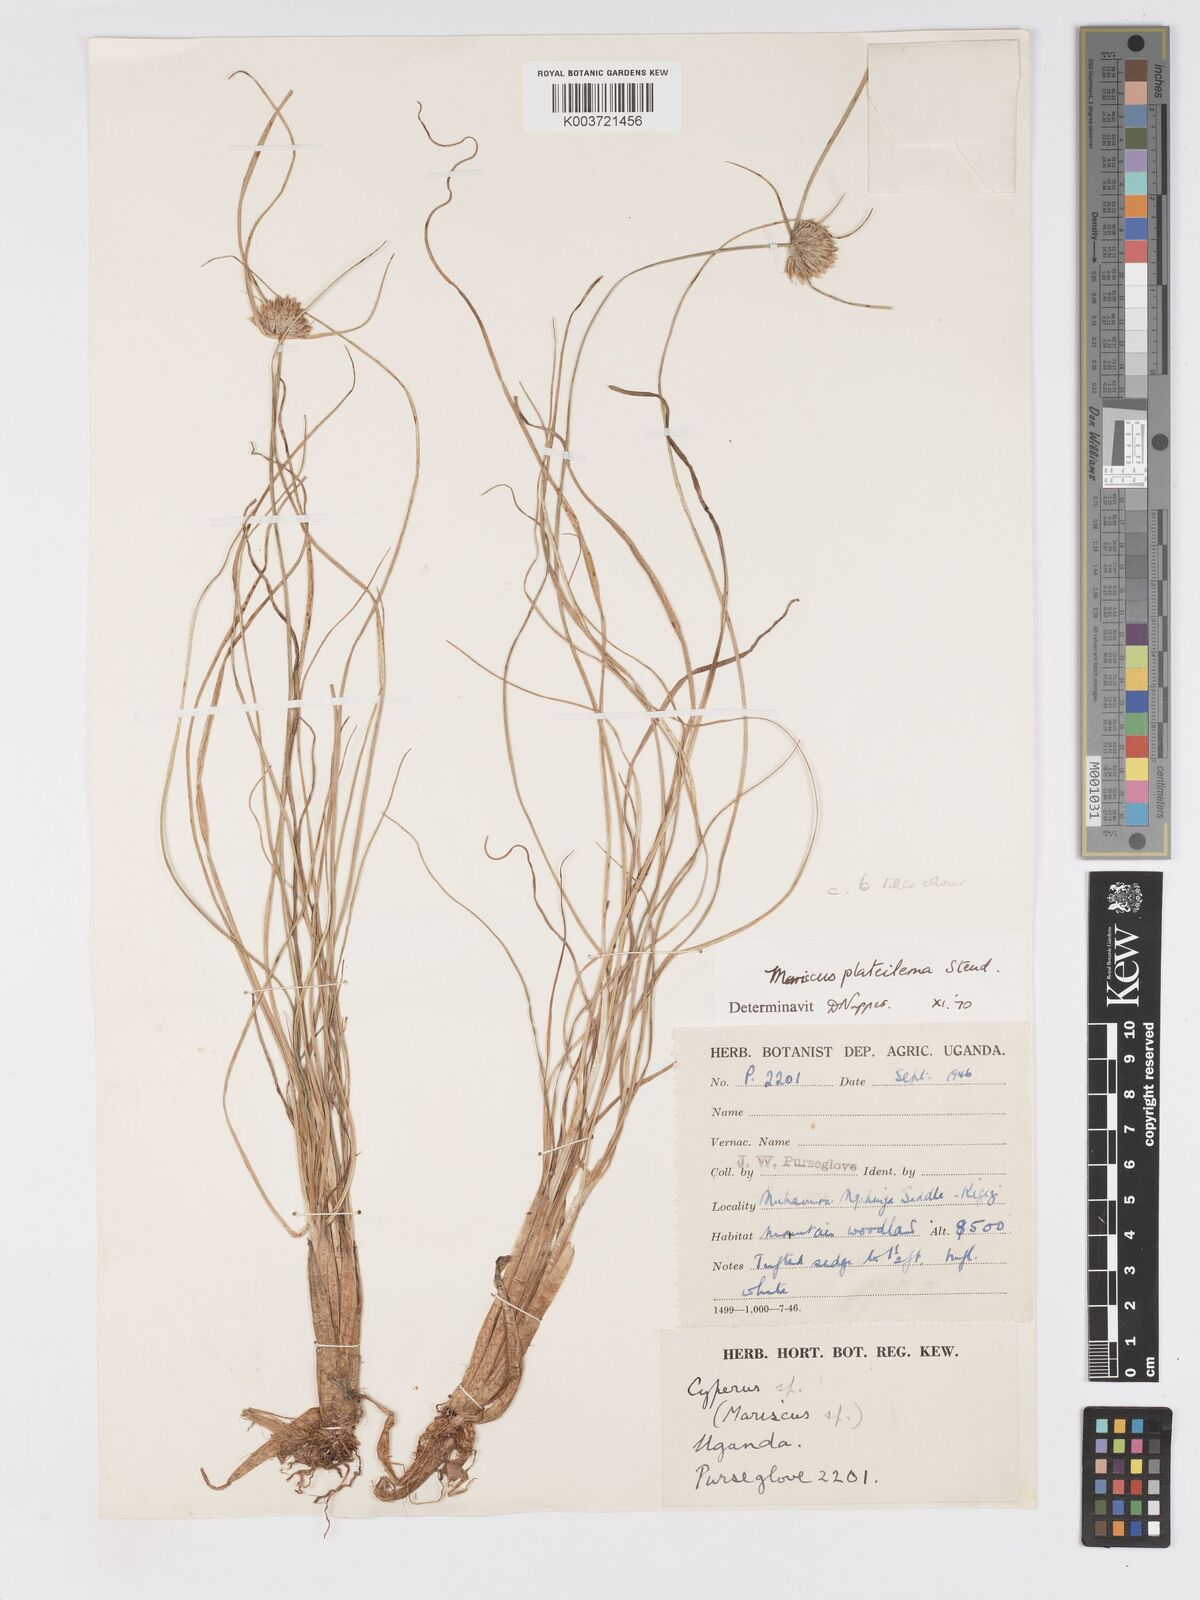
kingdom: Plantae
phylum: Tracheophyta
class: Liliopsida
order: Poales
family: Cyperaceae
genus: Cyperus
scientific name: Cyperus plateilema
